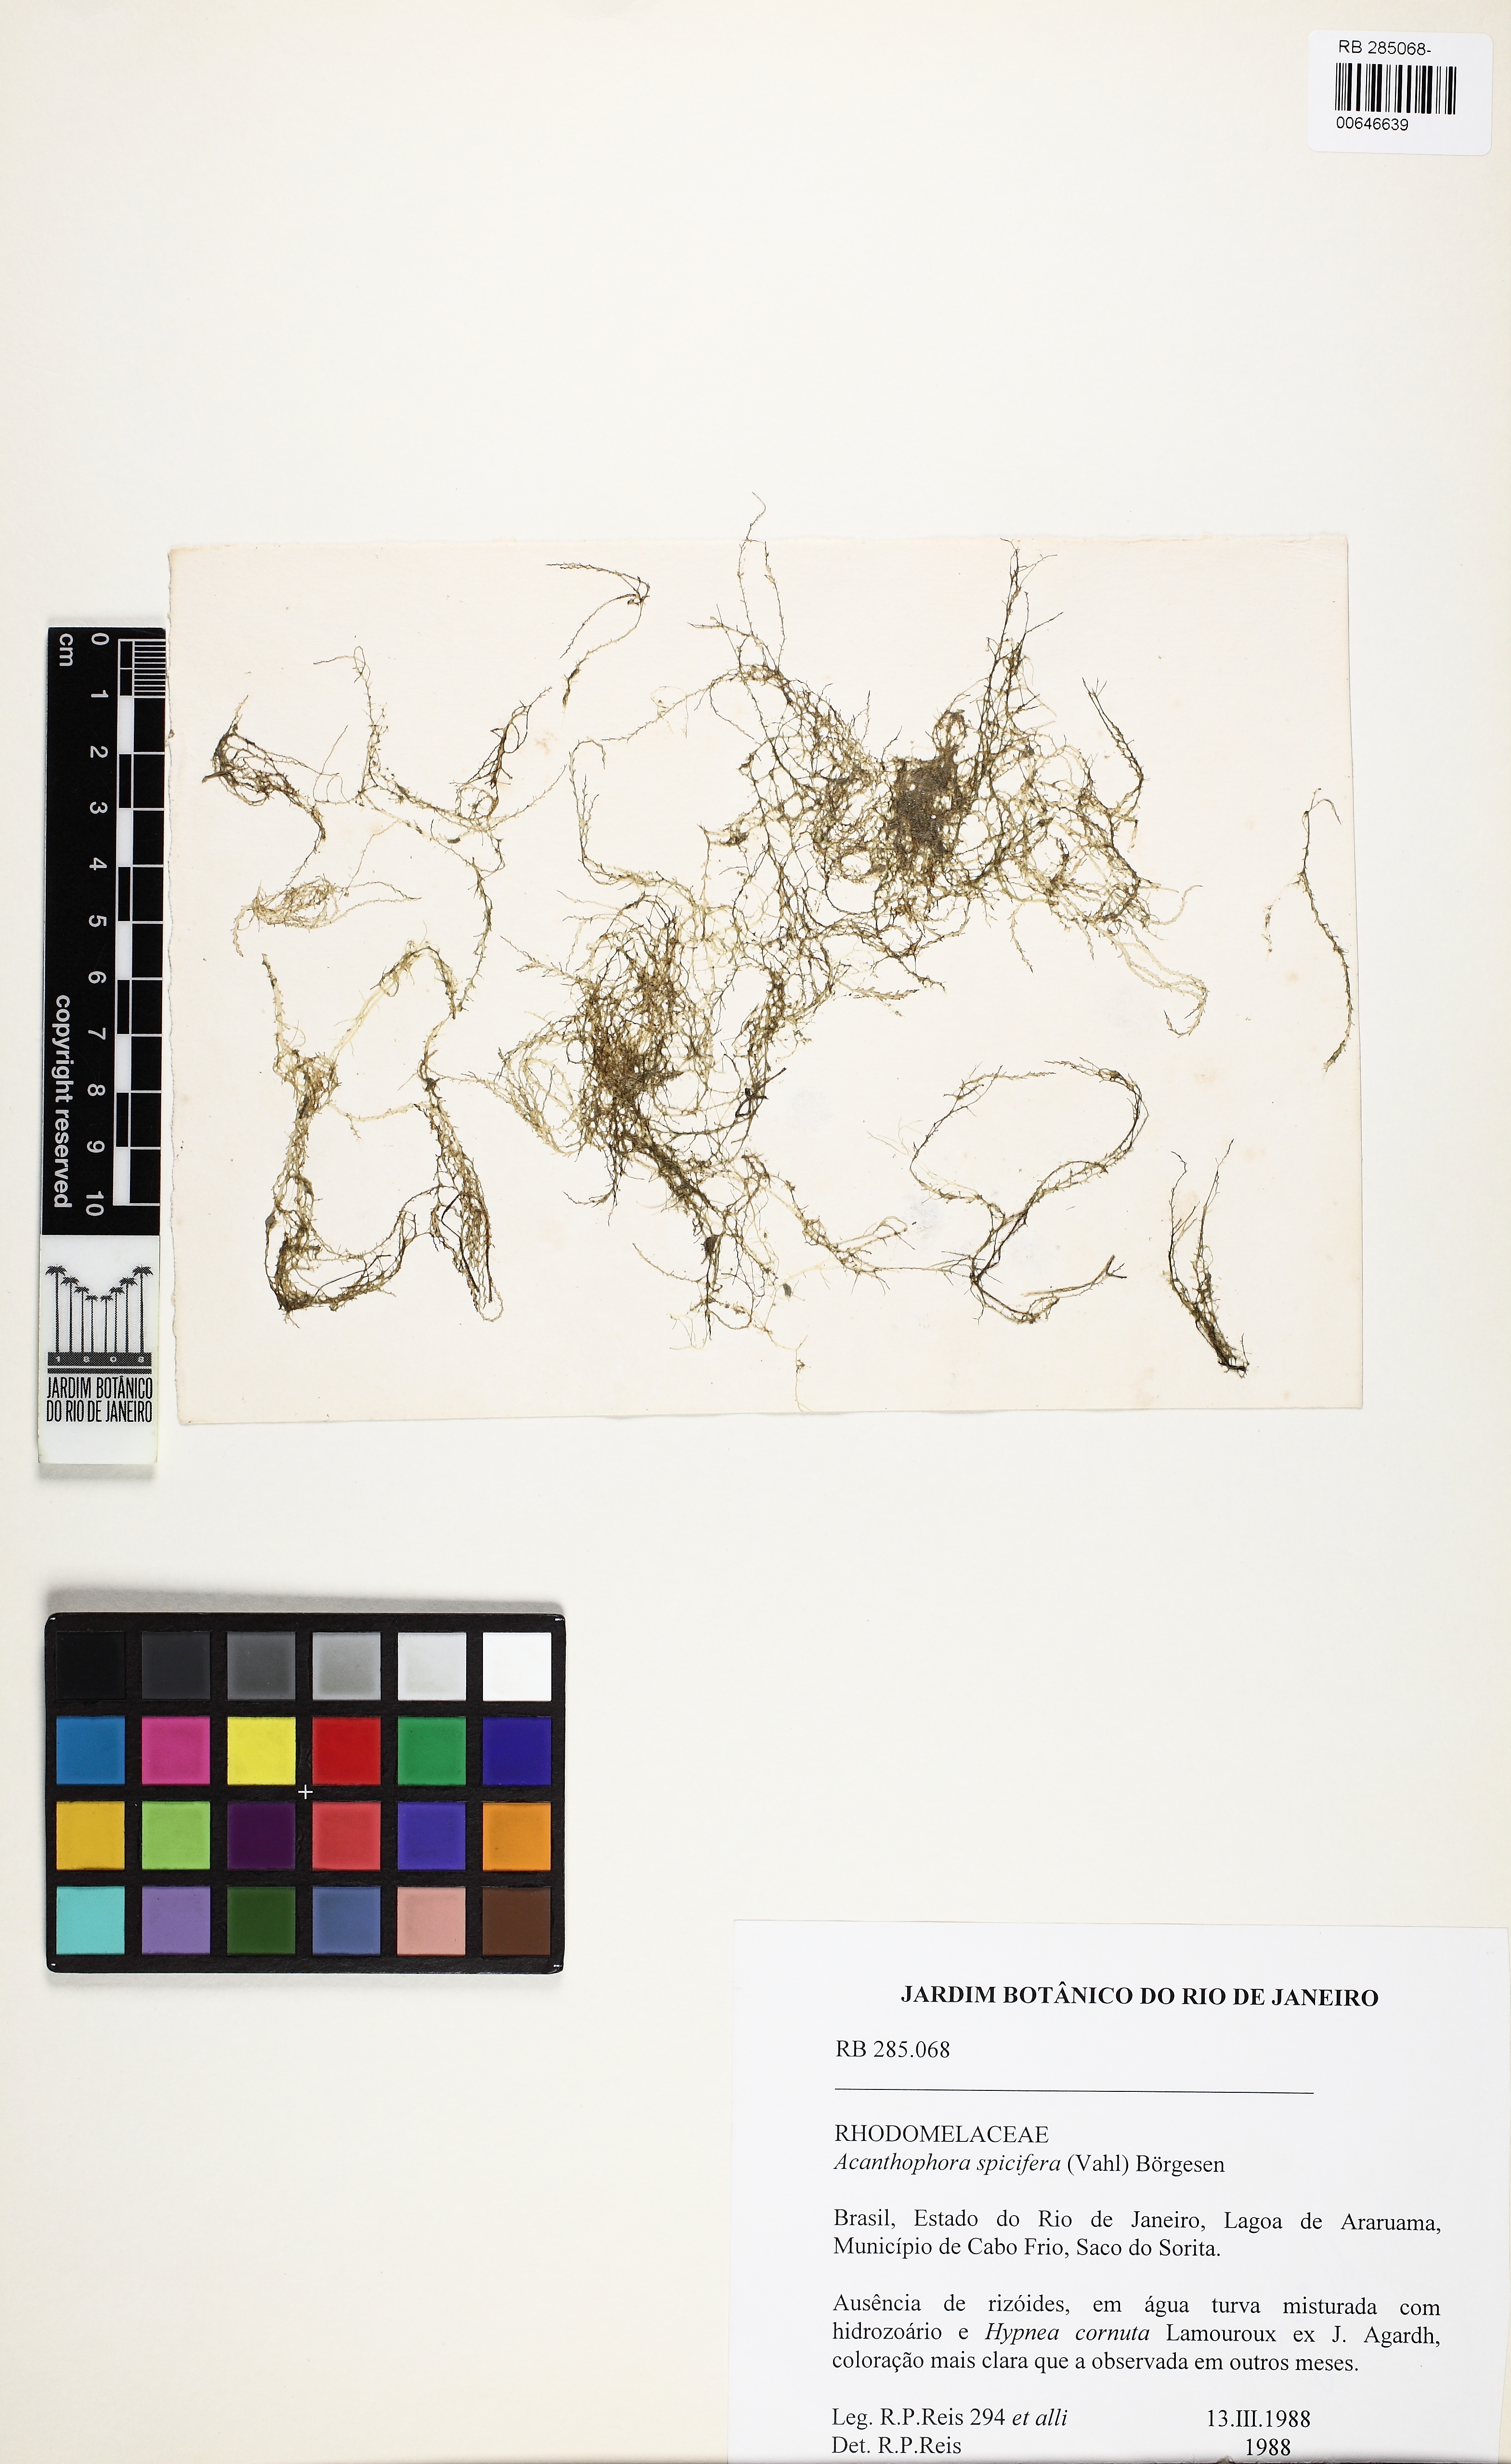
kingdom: Plantae
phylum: Rhodophyta
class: Florideophyceae
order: Ceramiales
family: Rhodomelaceae
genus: Acanthophora
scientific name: Acanthophora spicifera
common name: Red algae
